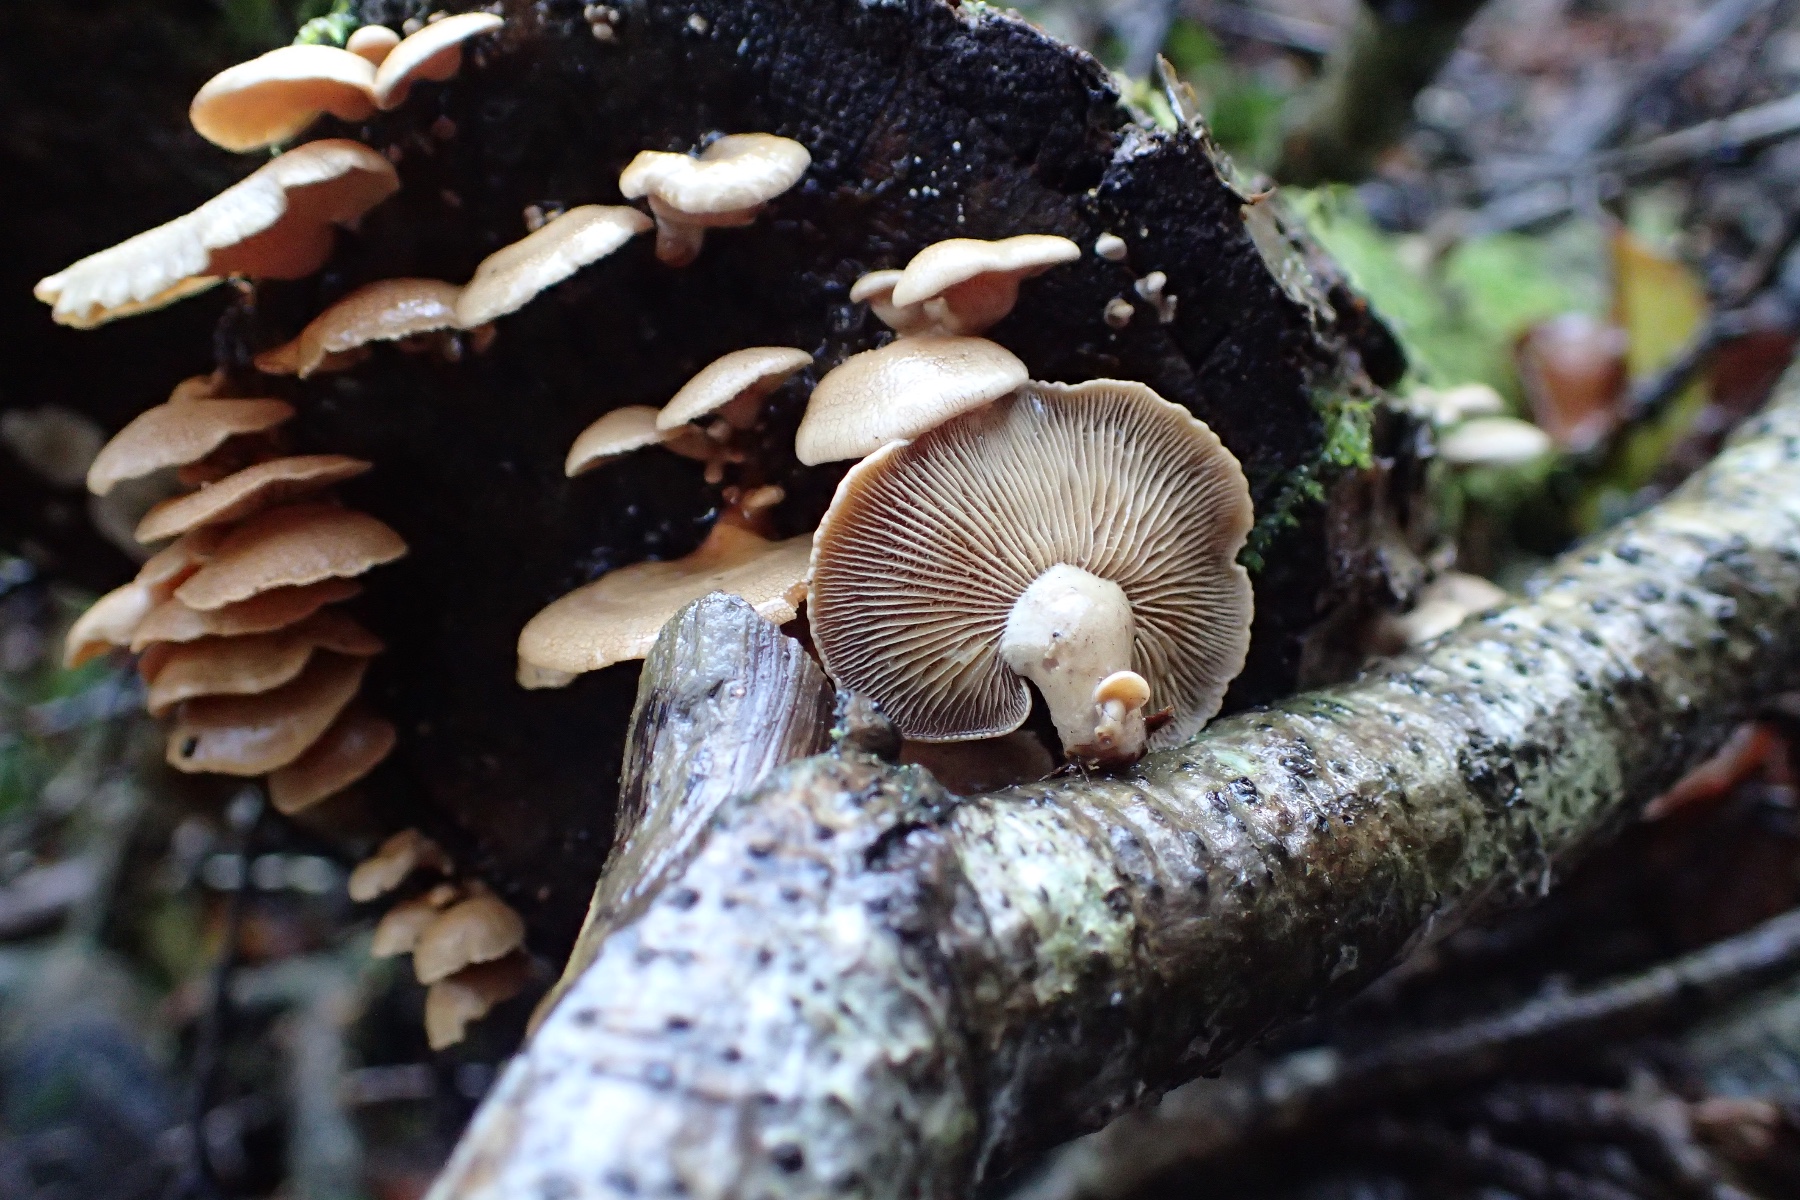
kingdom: Fungi
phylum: Basidiomycota
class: Agaricomycetes
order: Agaricales
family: Mycenaceae
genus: Panellus
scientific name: Panellus stipticus
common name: kliddet epaulethat
